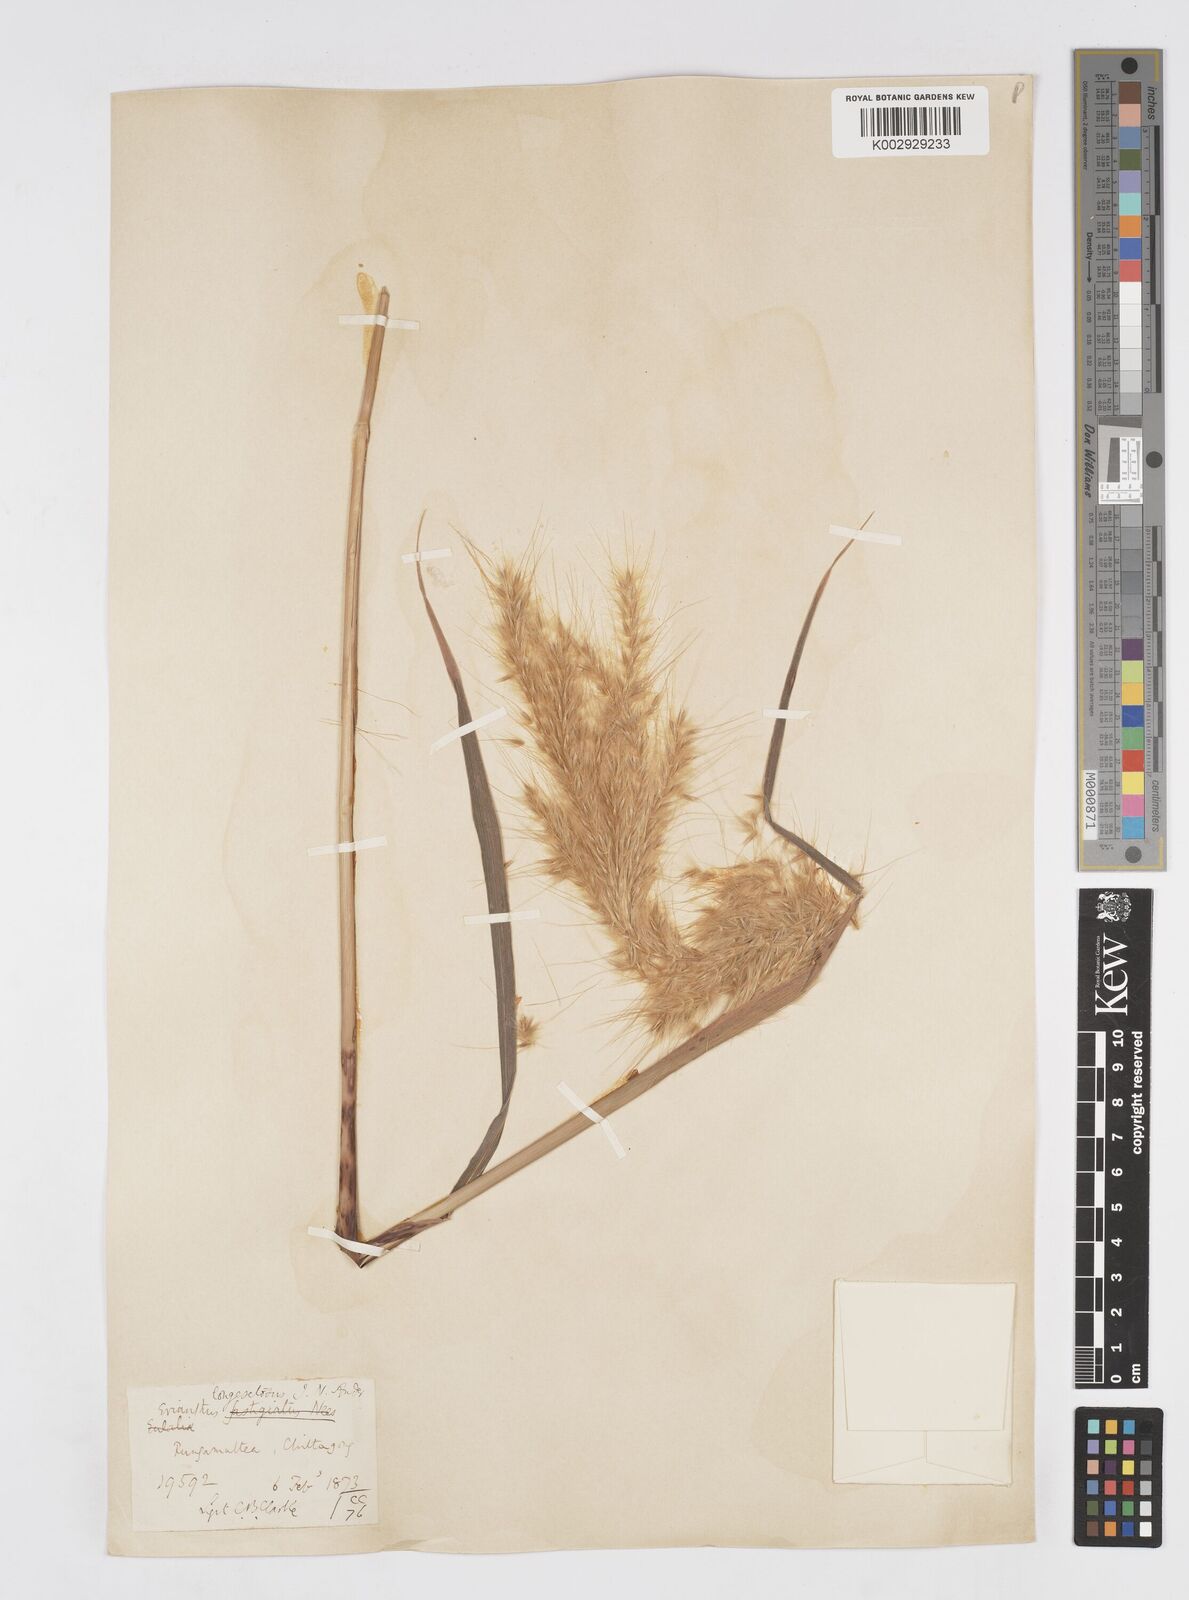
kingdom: Plantae
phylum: Tracheophyta
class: Liliopsida
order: Poales
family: Poaceae
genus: Melinis
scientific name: Melinis longiseta
